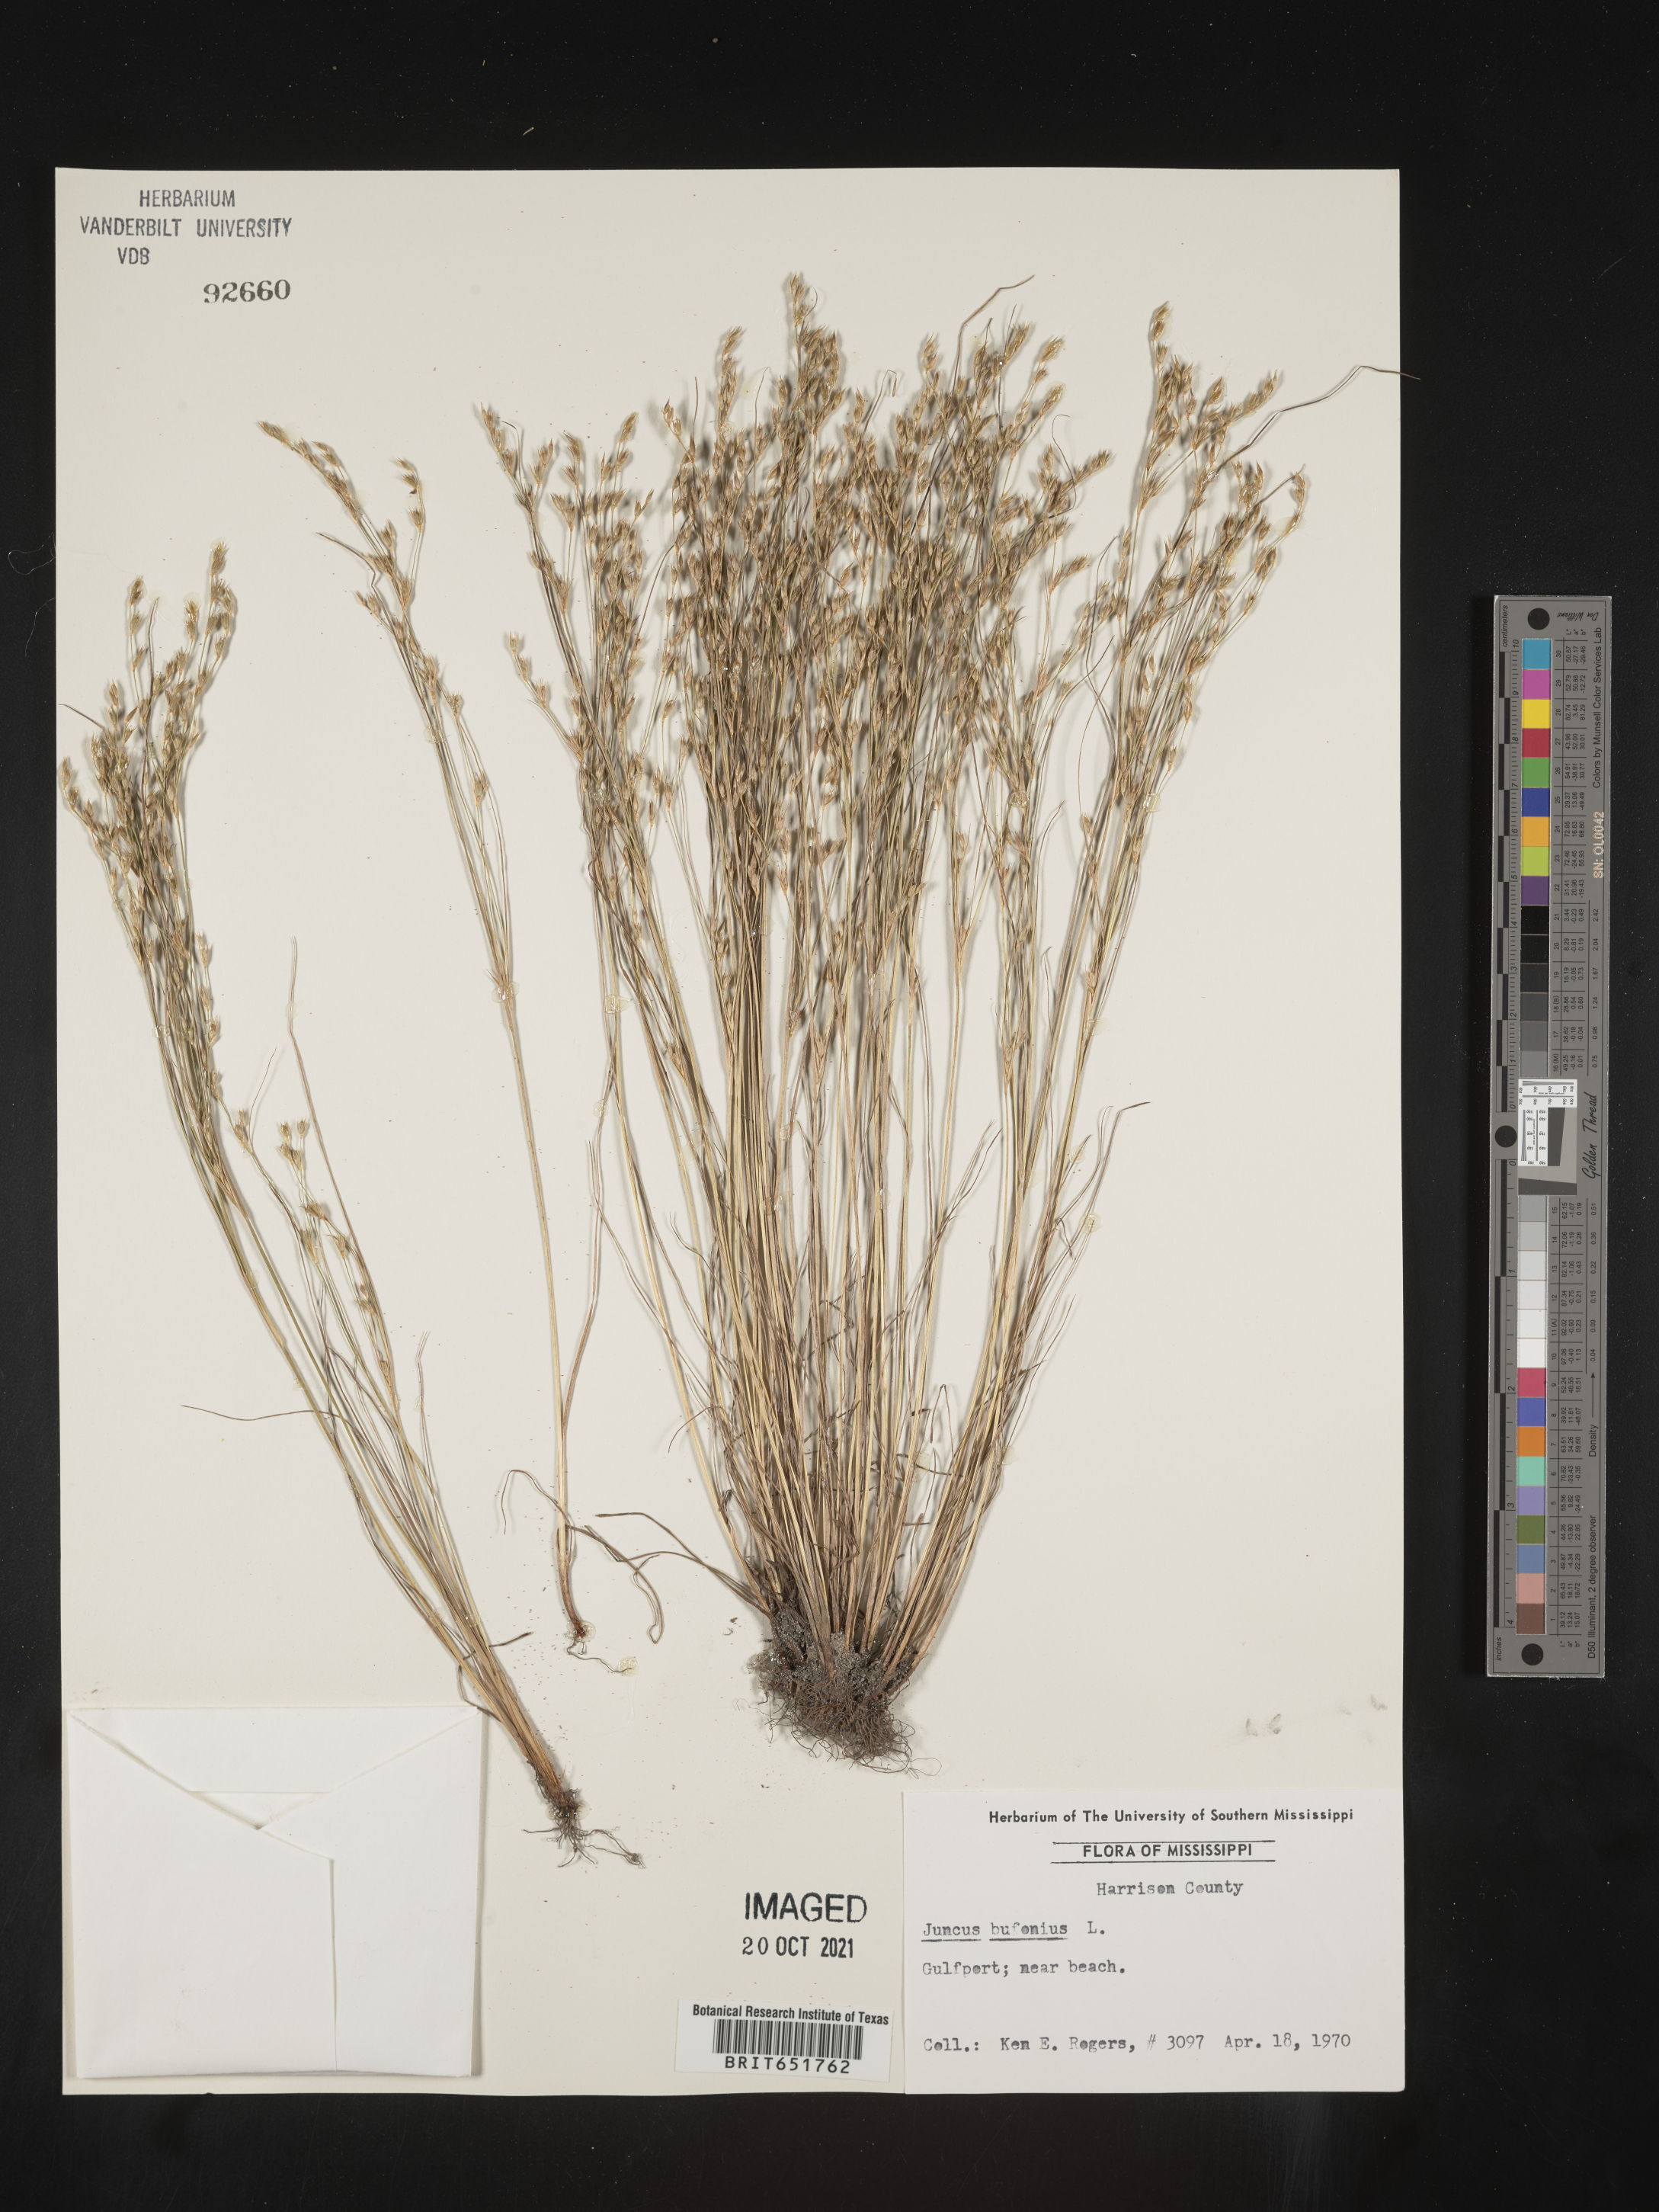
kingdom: Plantae
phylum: Tracheophyta
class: Liliopsida
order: Poales
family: Juncaceae
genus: Juncus
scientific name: Juncus bufonius
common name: Toad rush
